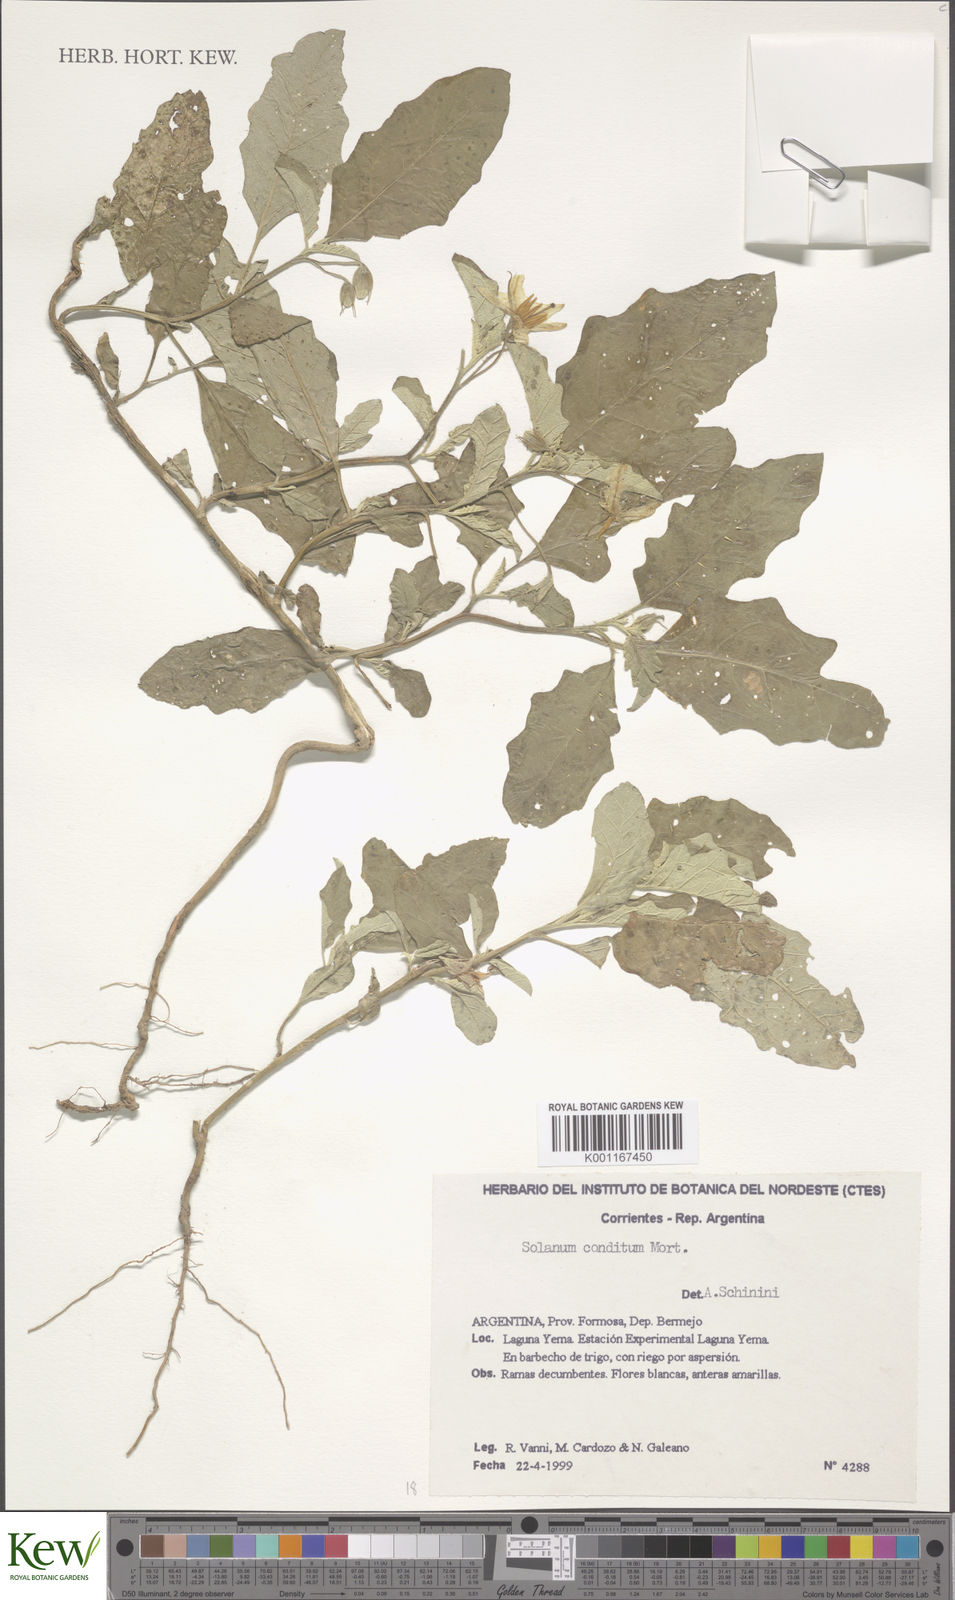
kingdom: Plantae
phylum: Tracheophyta
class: Magnoliopsida
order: Solanales
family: Solanaceae
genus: Solanum
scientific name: Solanum aridum
